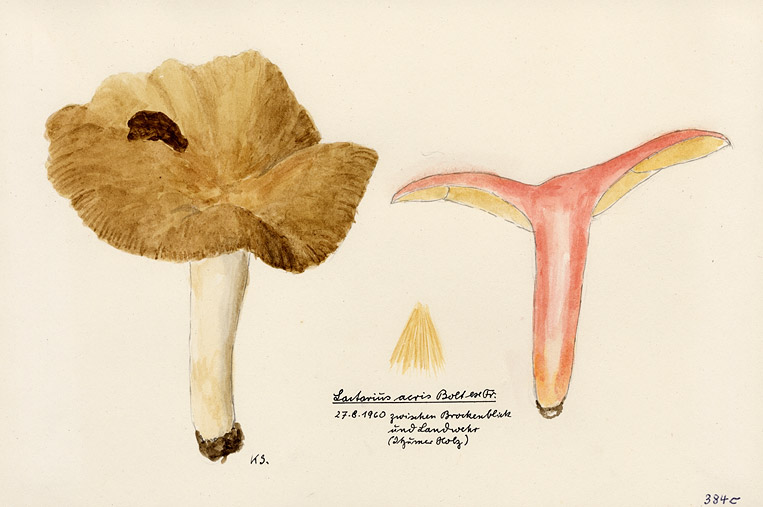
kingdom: Fungi
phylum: Basidiomycota
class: Agaricomycetes
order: Russulales
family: Russulaceae
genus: Lactarius
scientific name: Lactarius acris
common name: Raspberry milkcap
